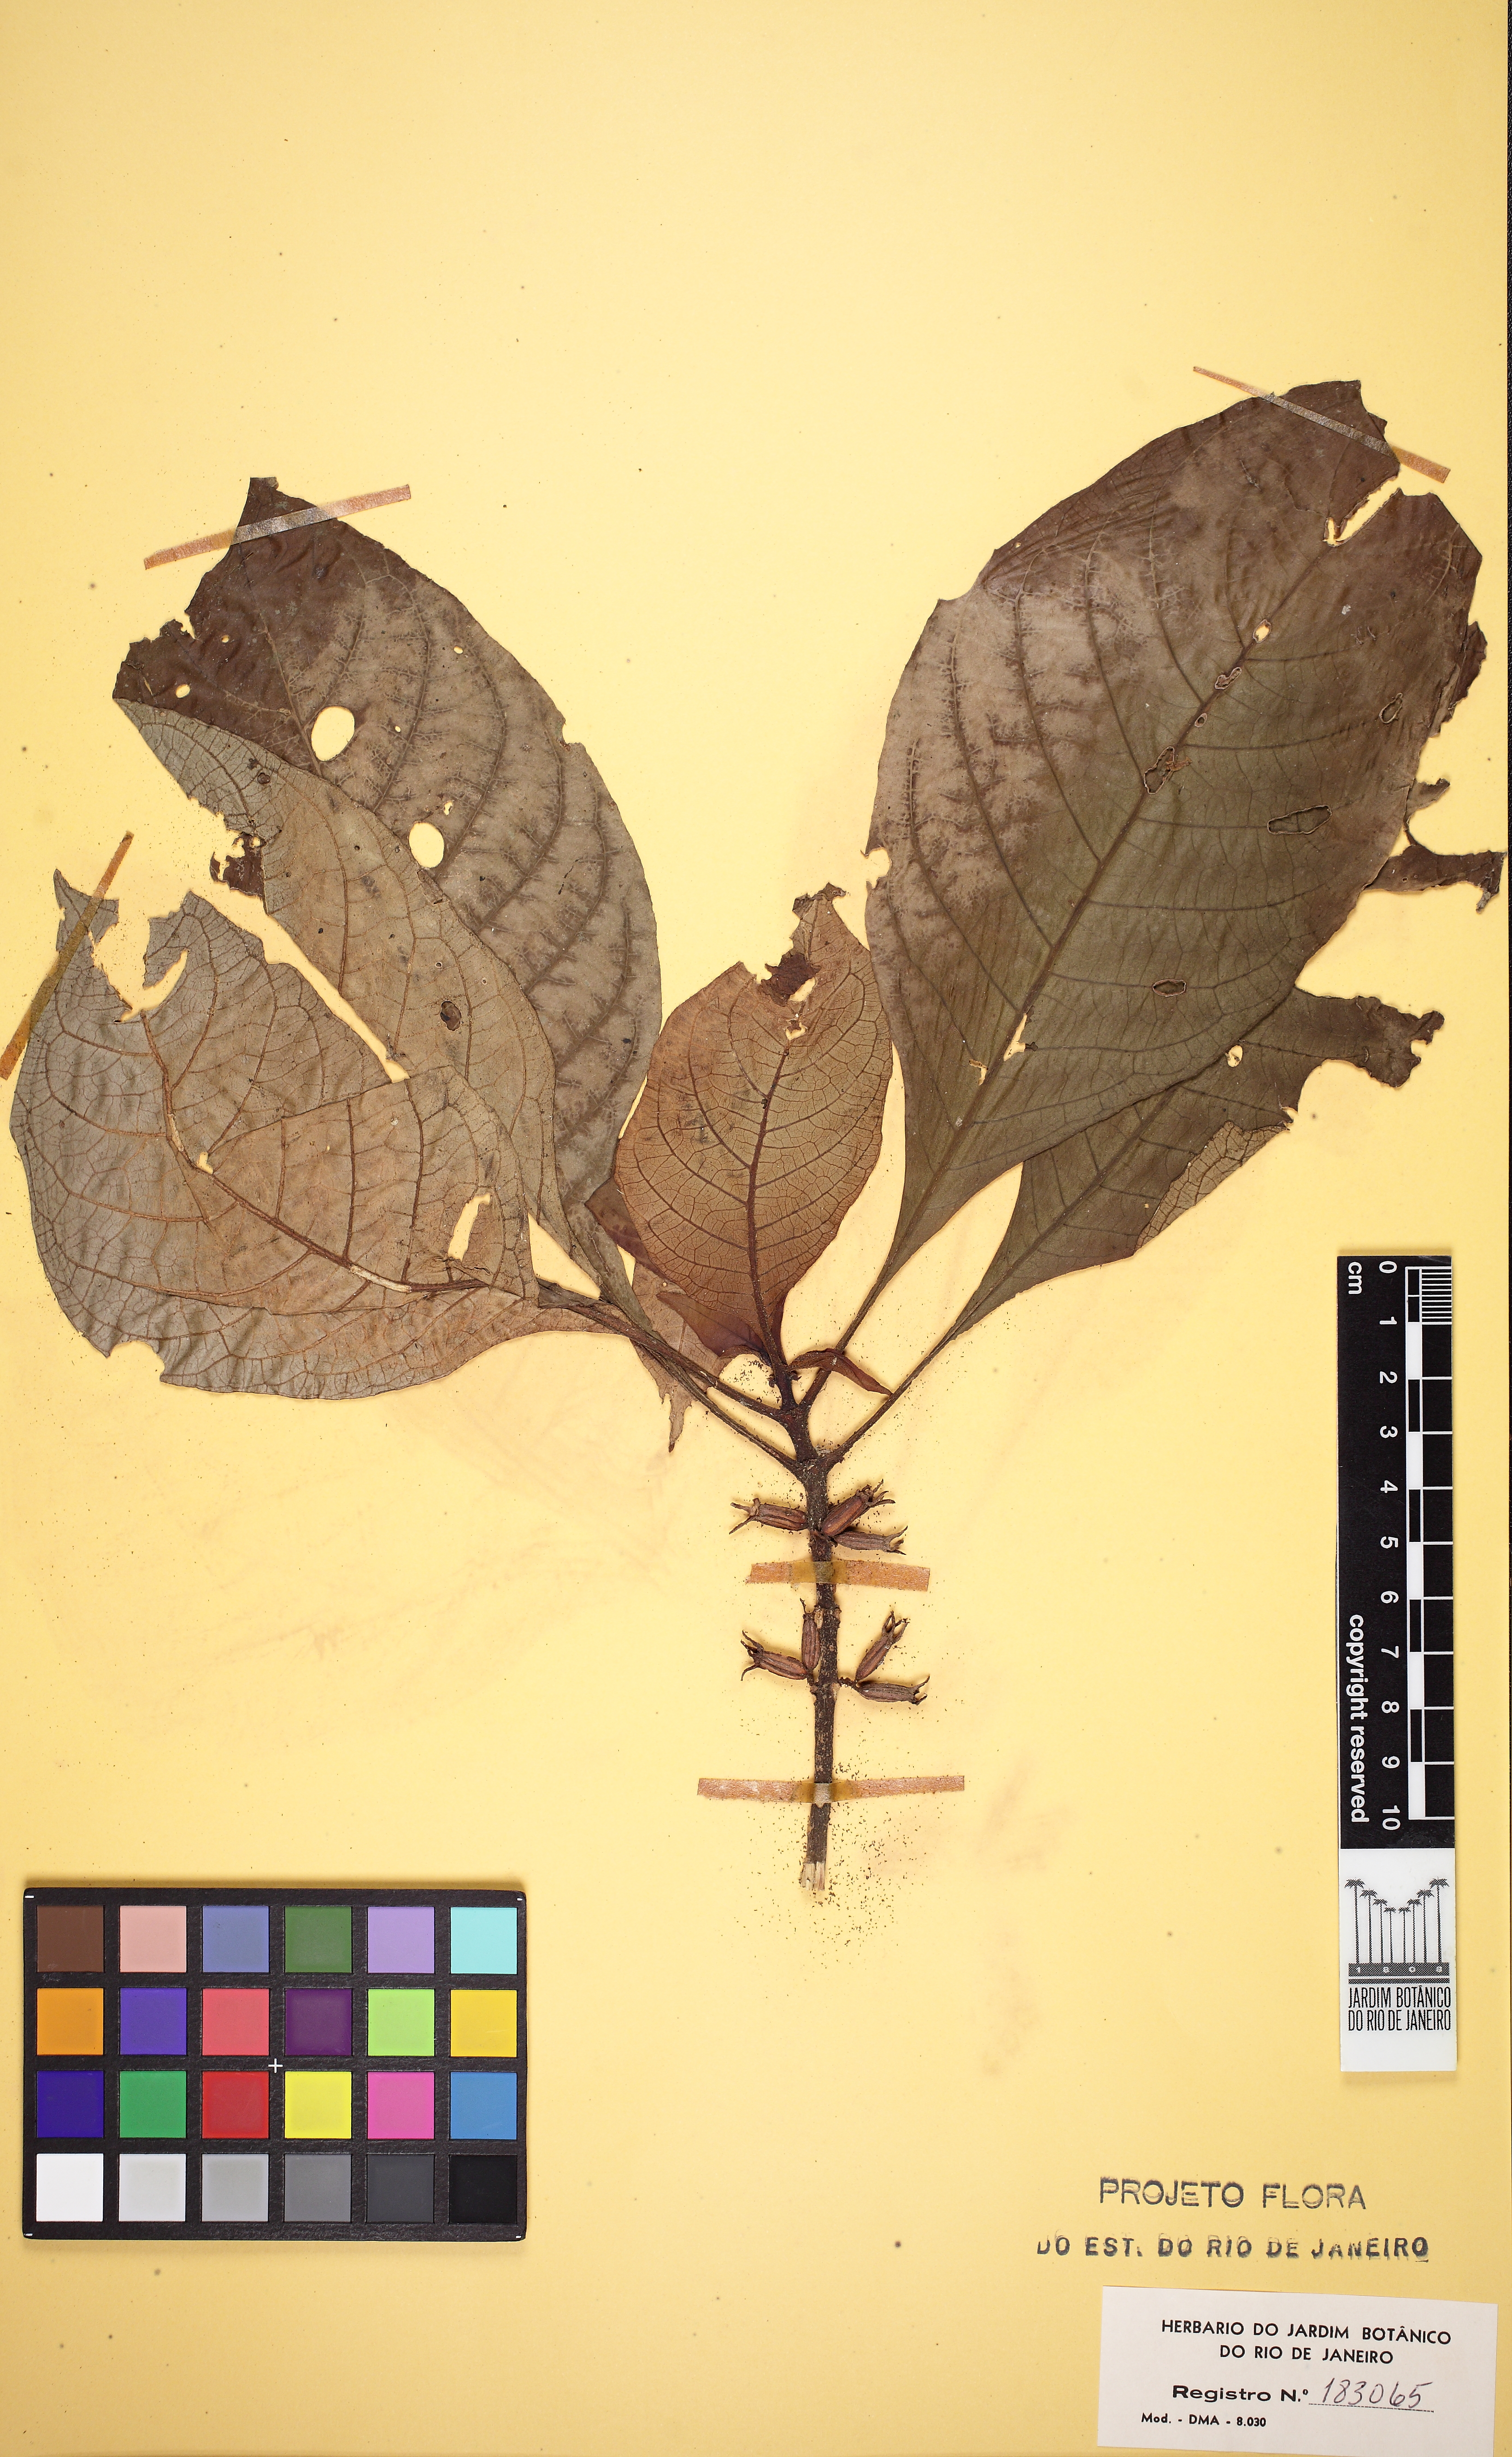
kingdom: Plantae
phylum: Tracheophyta
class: Magnoliopsida
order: Gentianales
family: Rubiaceae
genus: Hoffmannia
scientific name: Hoffmannia peckii
